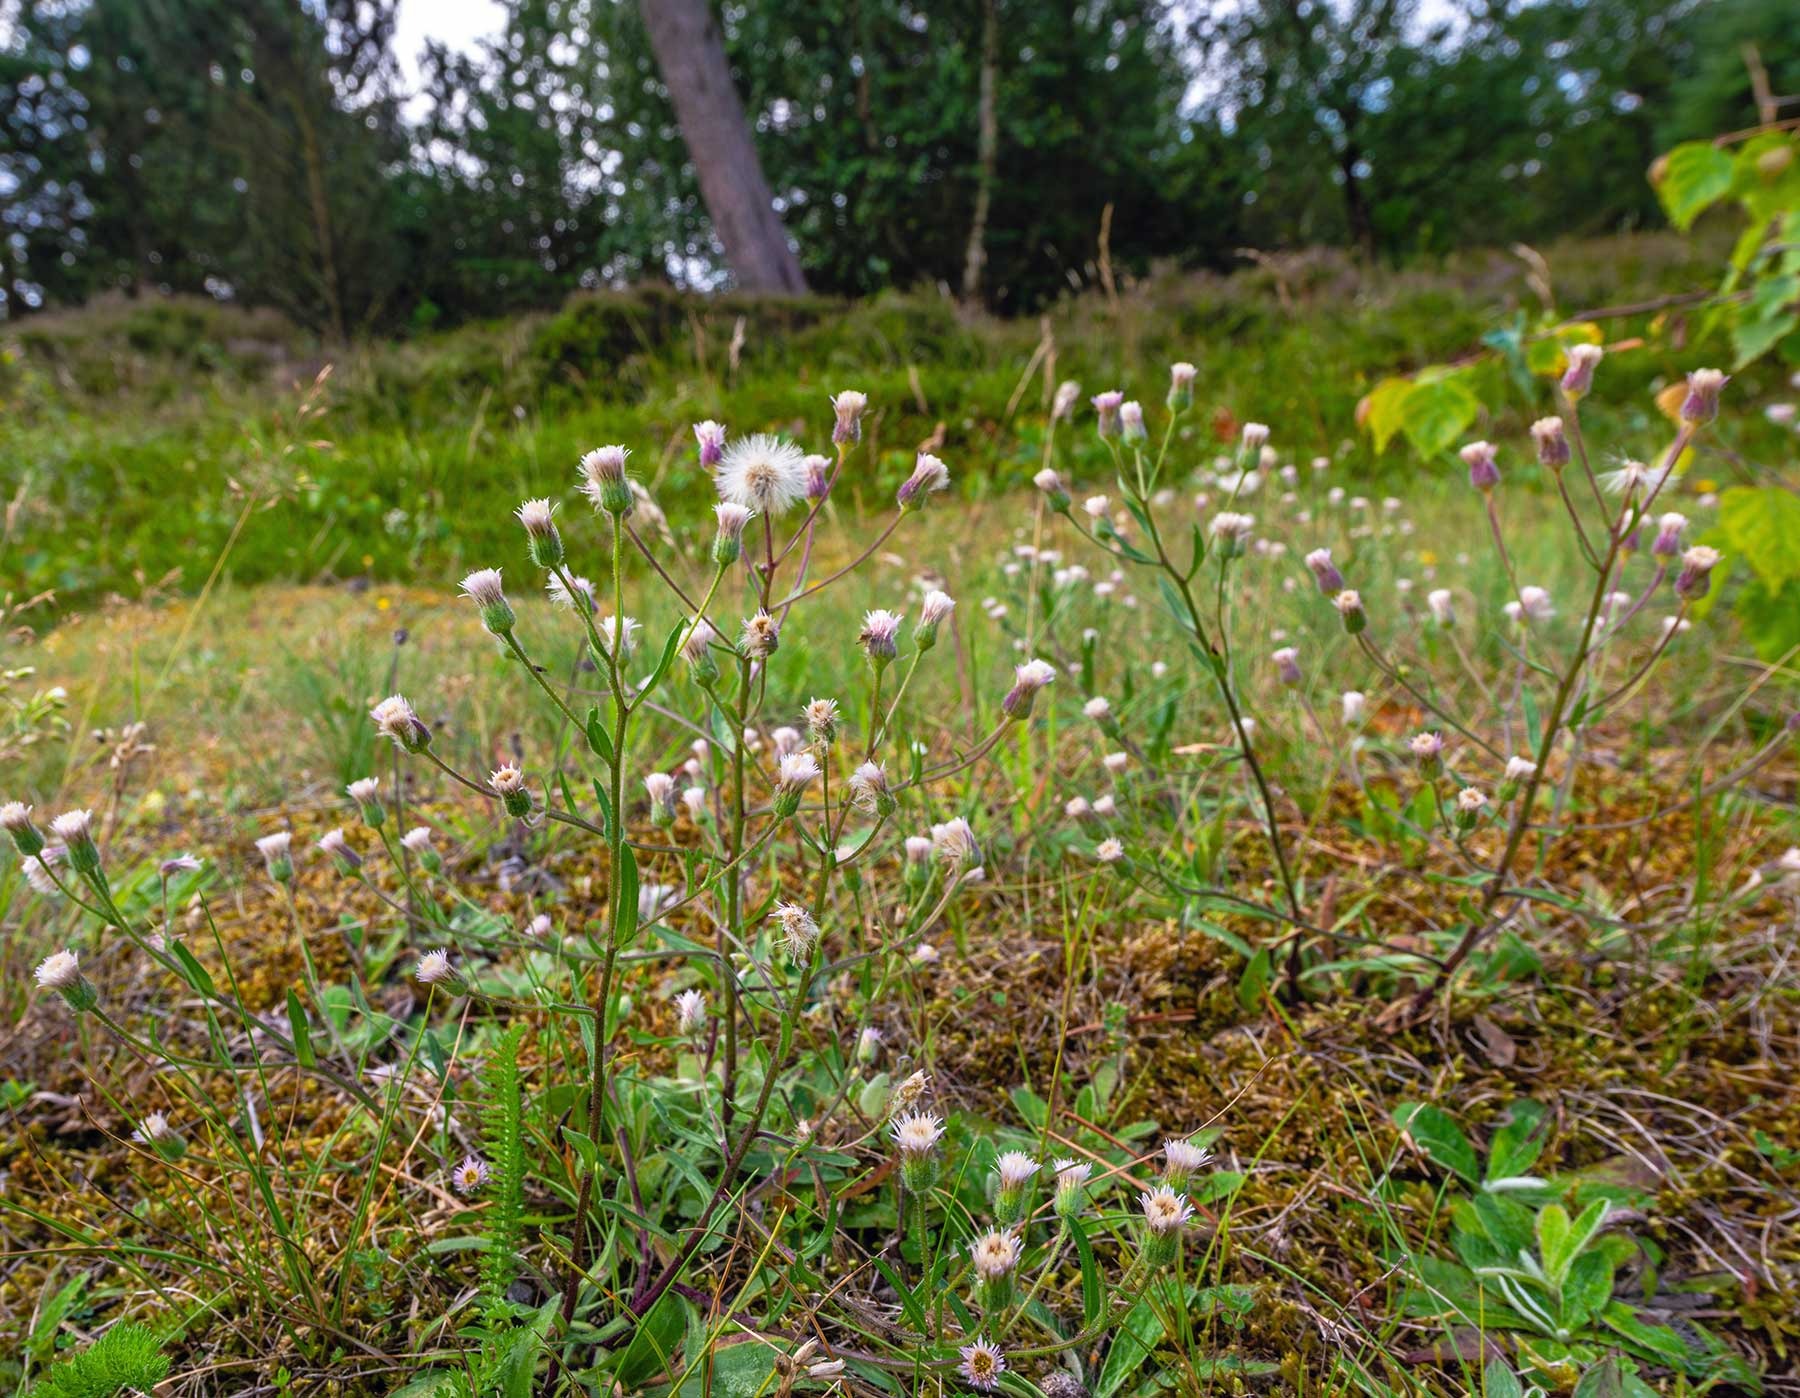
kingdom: Plantae
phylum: Tracheophyta
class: Magnoliopsida
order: Asterales
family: Asteraceae
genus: Erigeron
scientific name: Erigeron acris
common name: Bitter bakkestjerne
